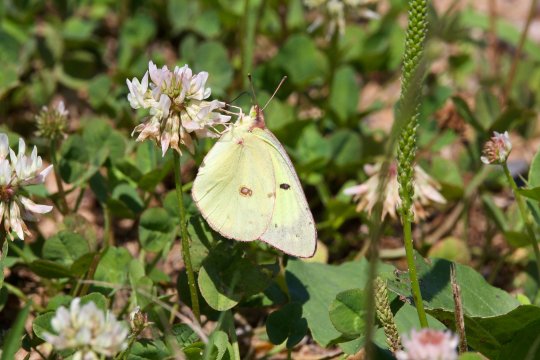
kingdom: Animalia
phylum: Arthropoda
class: Insecta
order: Lepidoptera
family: Pieridae
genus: Colias
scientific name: Colias philodice
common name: Clouded Sulphur
